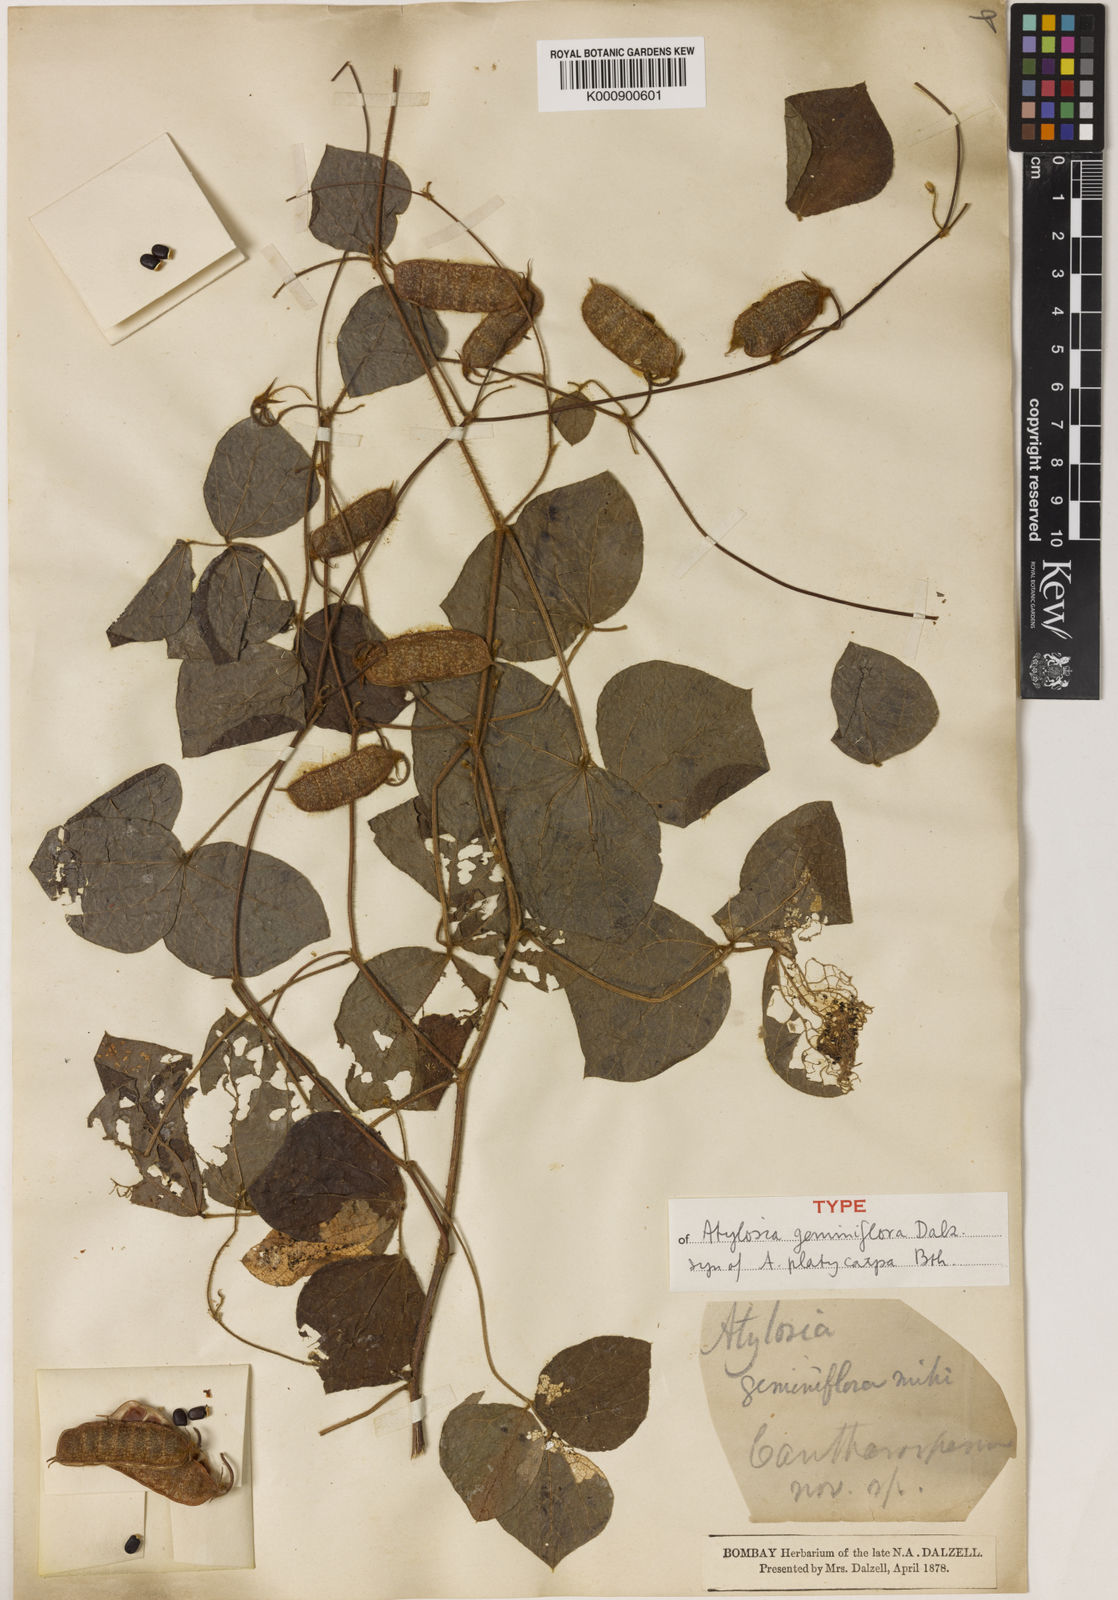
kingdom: Plantae
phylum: Tracheophyta
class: Magnoliopsida
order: Fabales
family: Fabaceae
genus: Cajanus
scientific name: Cajanus platycarpus
